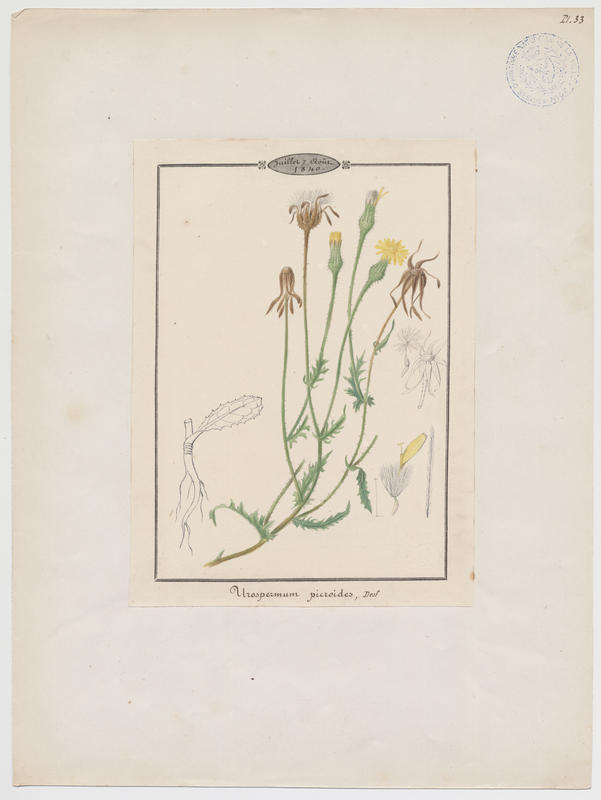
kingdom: Plantae
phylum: Tracheophyta
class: Magnoliopsida
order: Asterales
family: Asteraceae
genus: Urospermum
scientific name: Urospermum picroides
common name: False hawkbit
